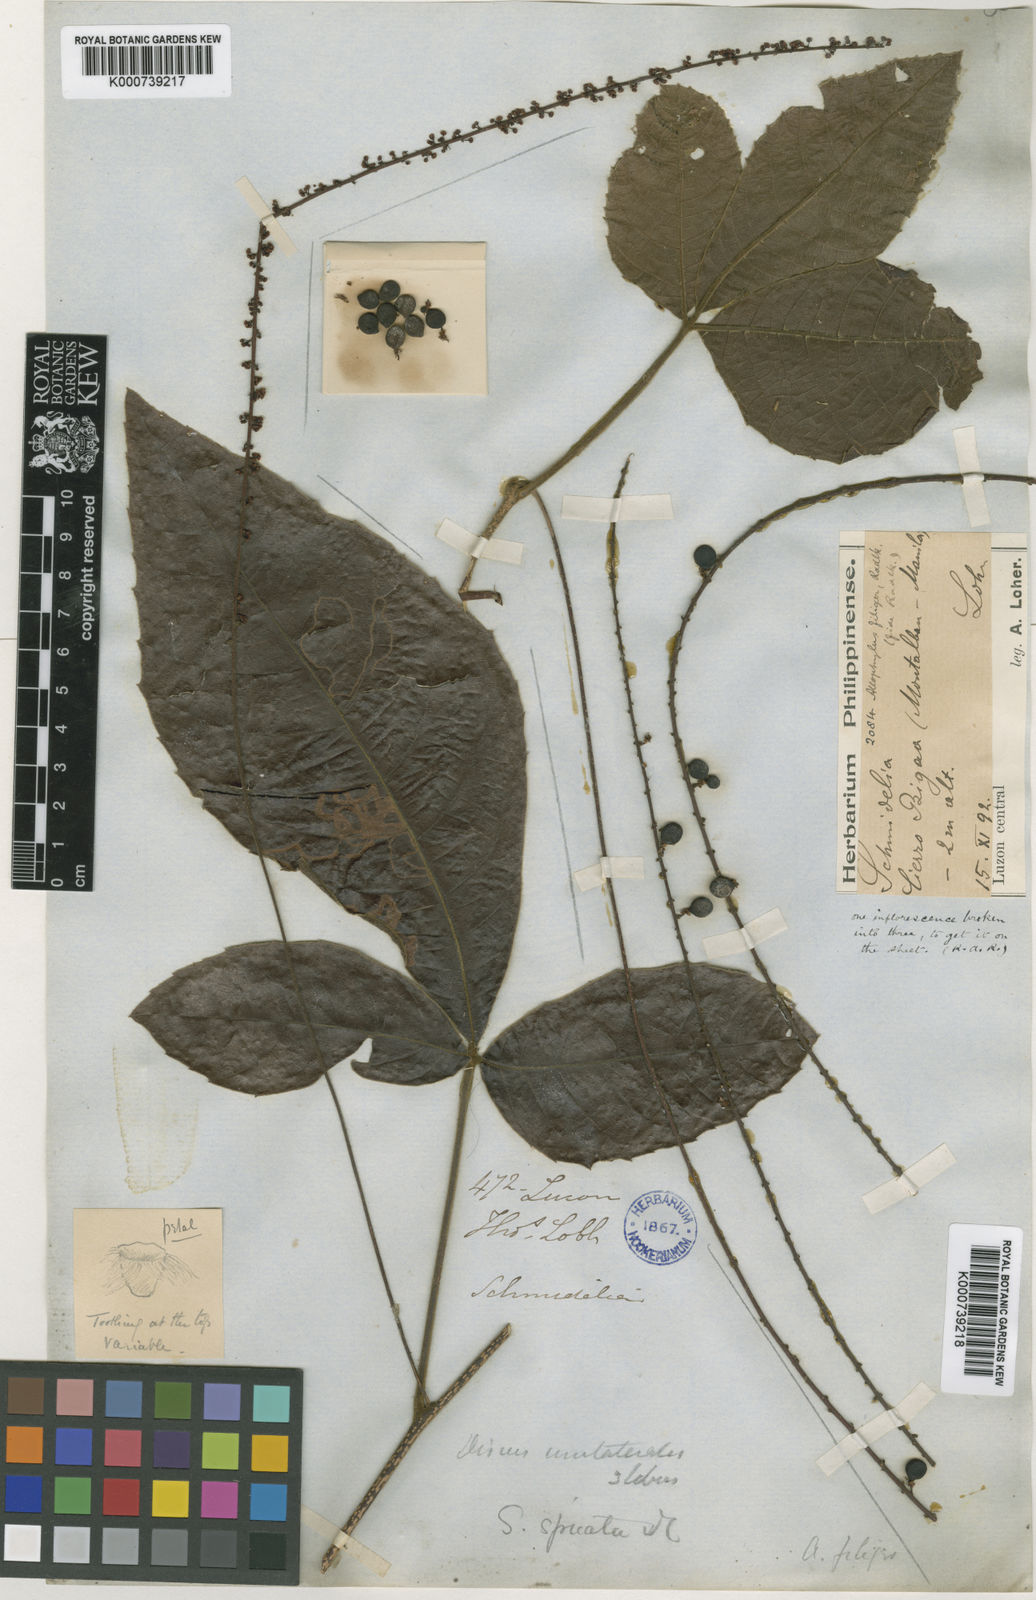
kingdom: Plantae
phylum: Tracheophyta
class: Magnoliopsida
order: Sapindales
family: Sapindaceae
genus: Allophylus
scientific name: Allophylus cobbe
